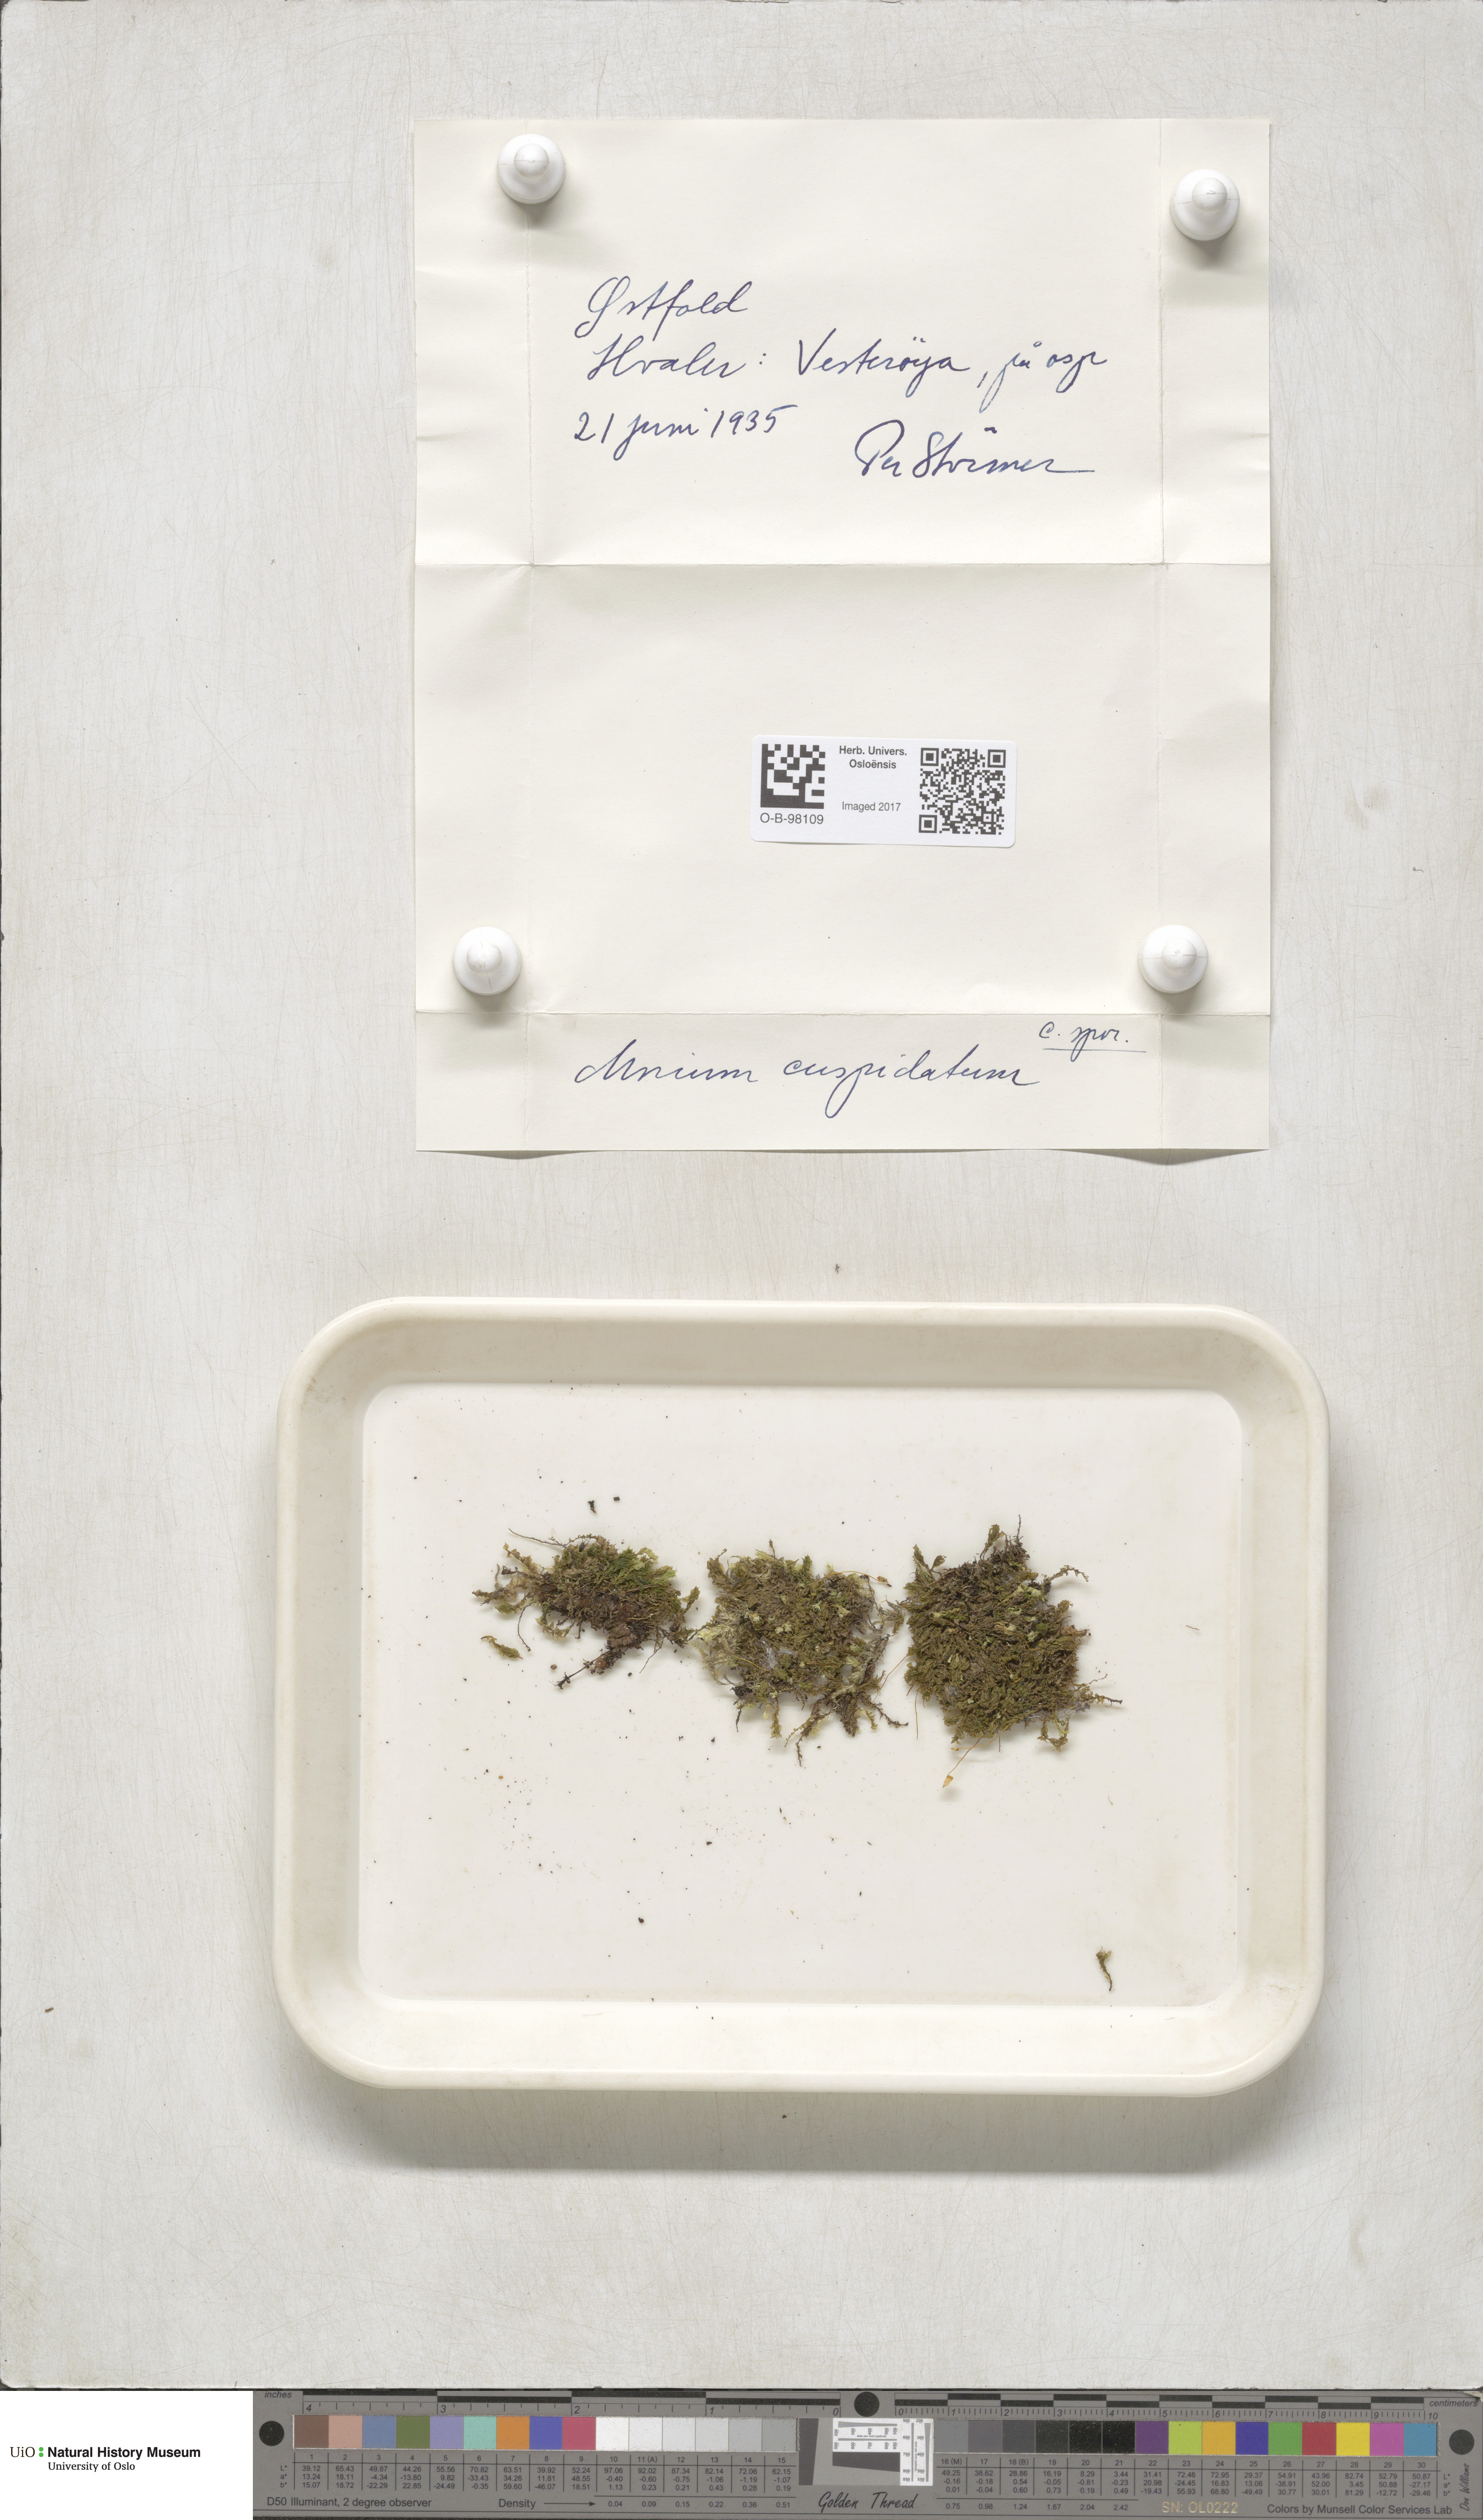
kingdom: Plantae
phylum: Bryophyta
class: Bryopsida
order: Bryales
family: Mniaceae
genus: Plagiomnium
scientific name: Plagiomnium cuspidatum
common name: Woodsy leafy moss
